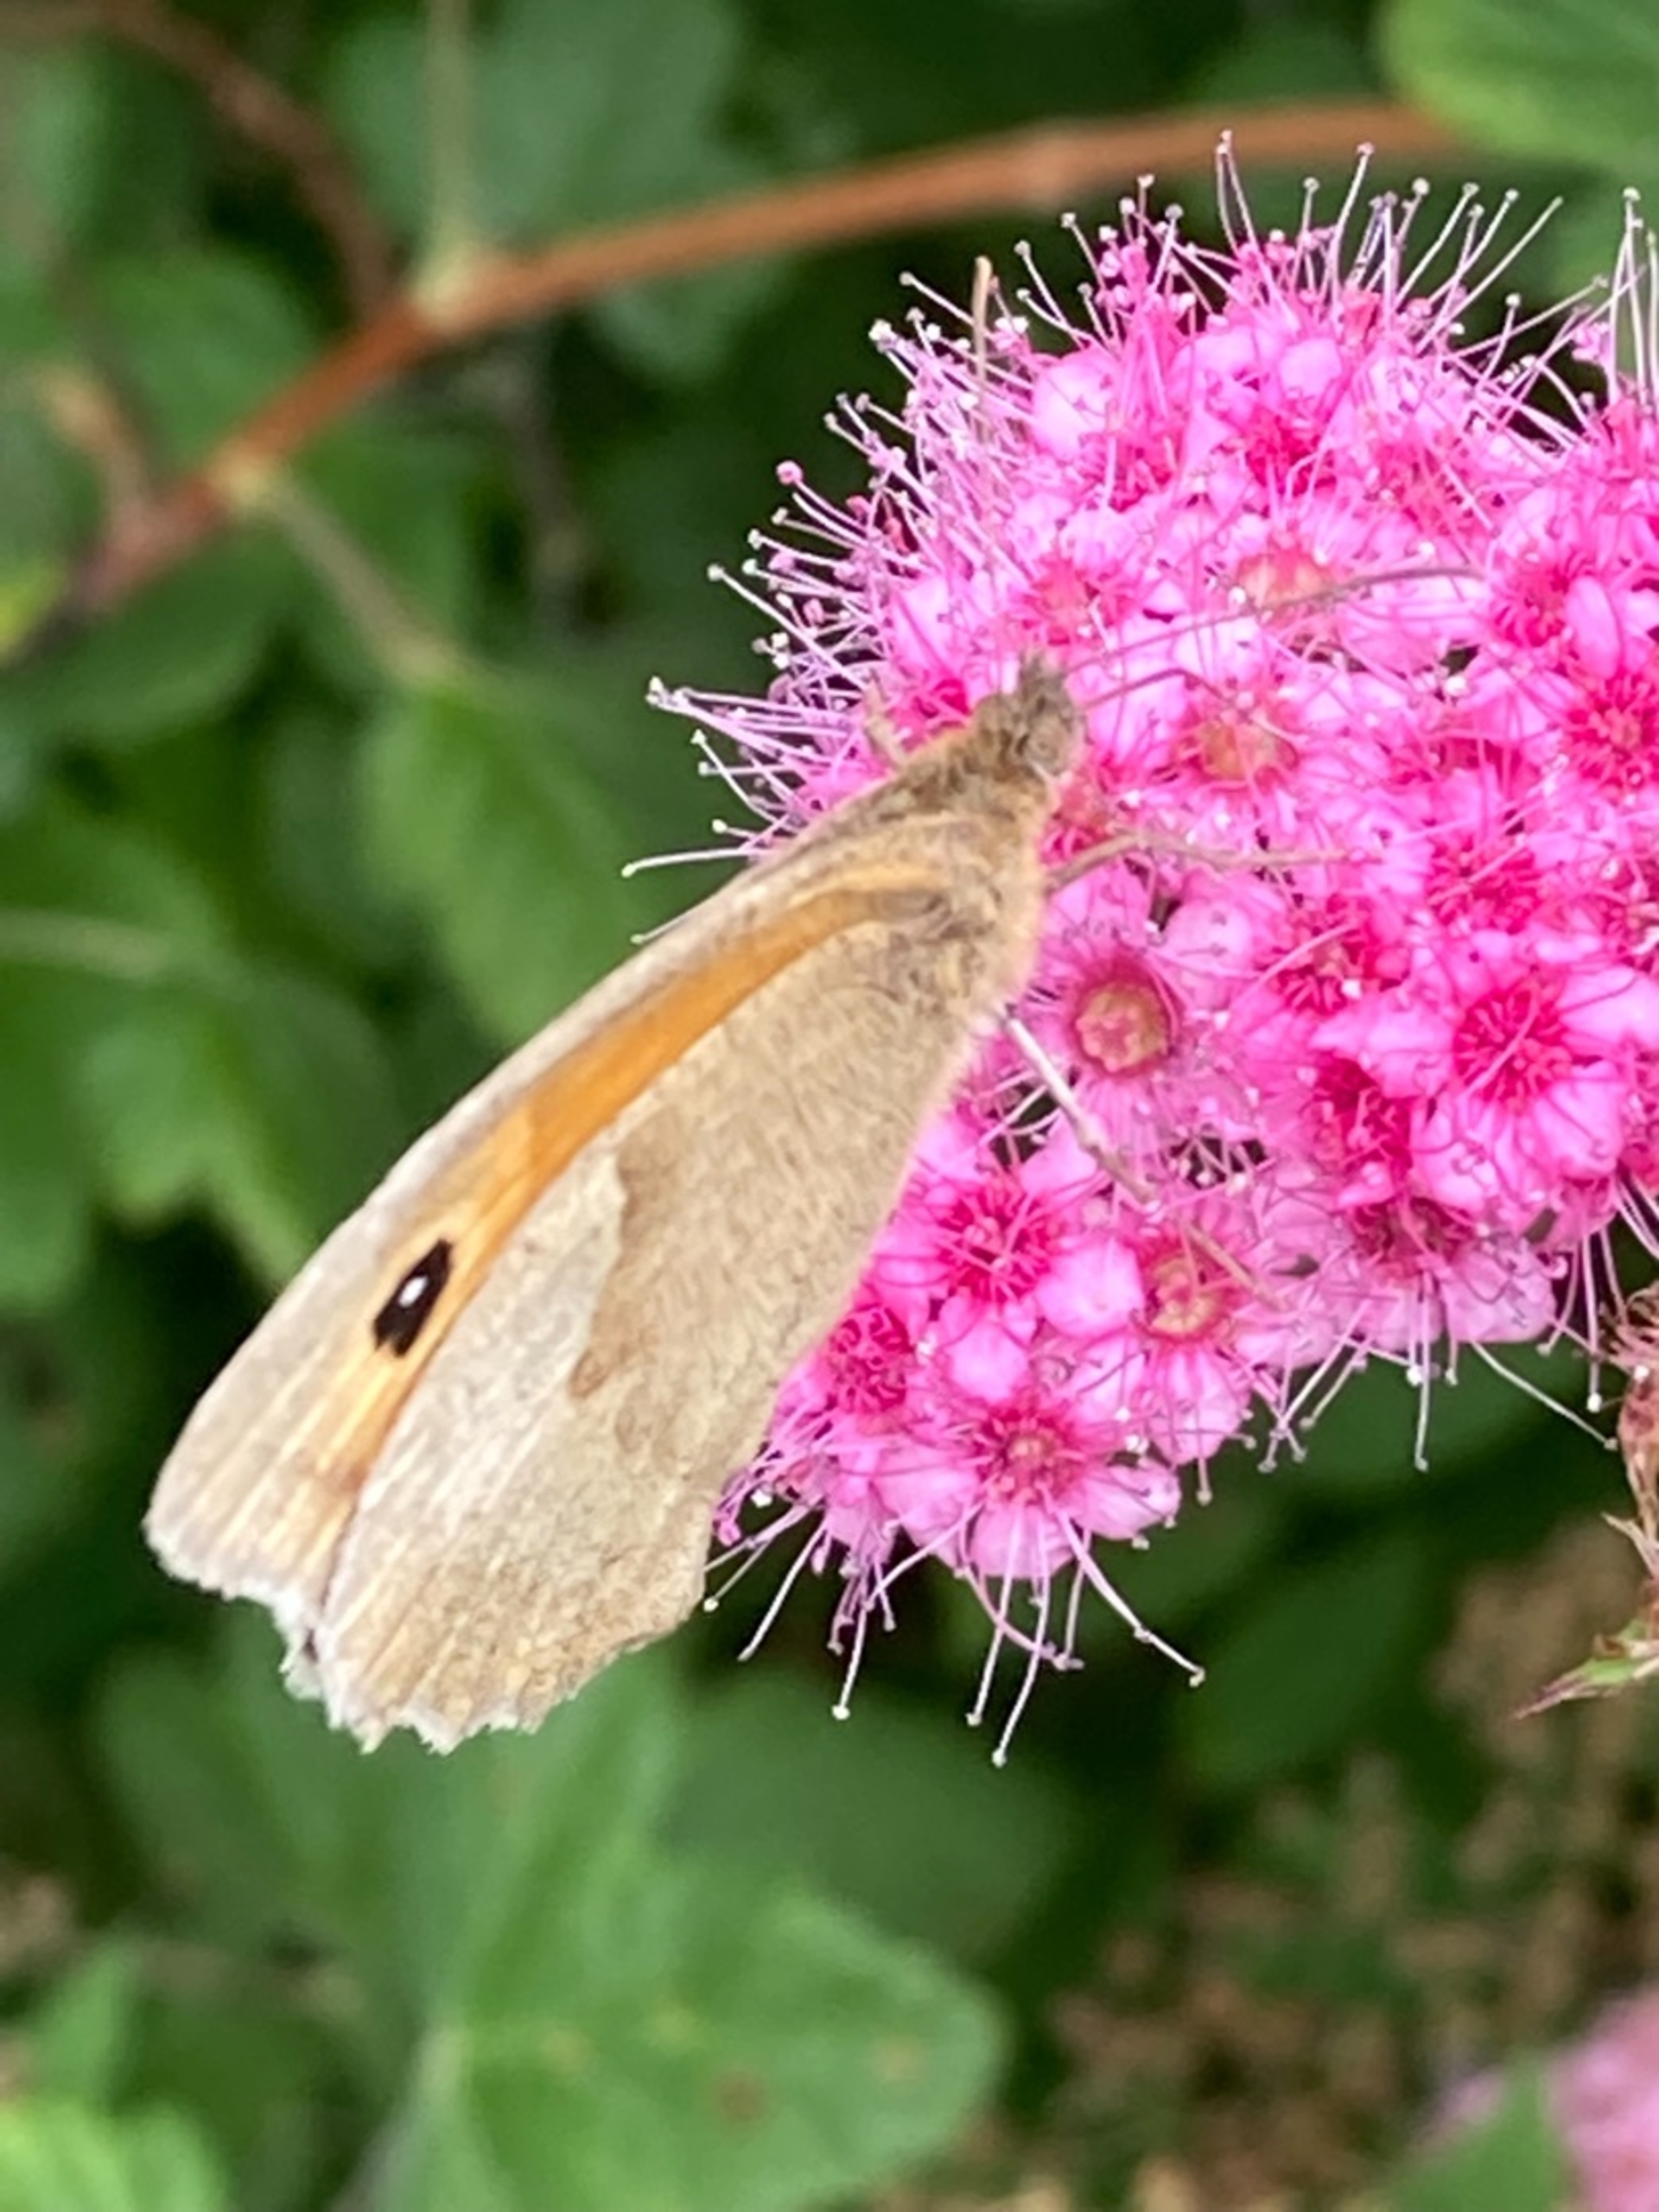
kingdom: Animalia
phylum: Arthropoda
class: Insecta
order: Lepidoptera
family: Nymphalidae
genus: Maniola
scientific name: Maniola jurtina
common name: Græsrandøje
